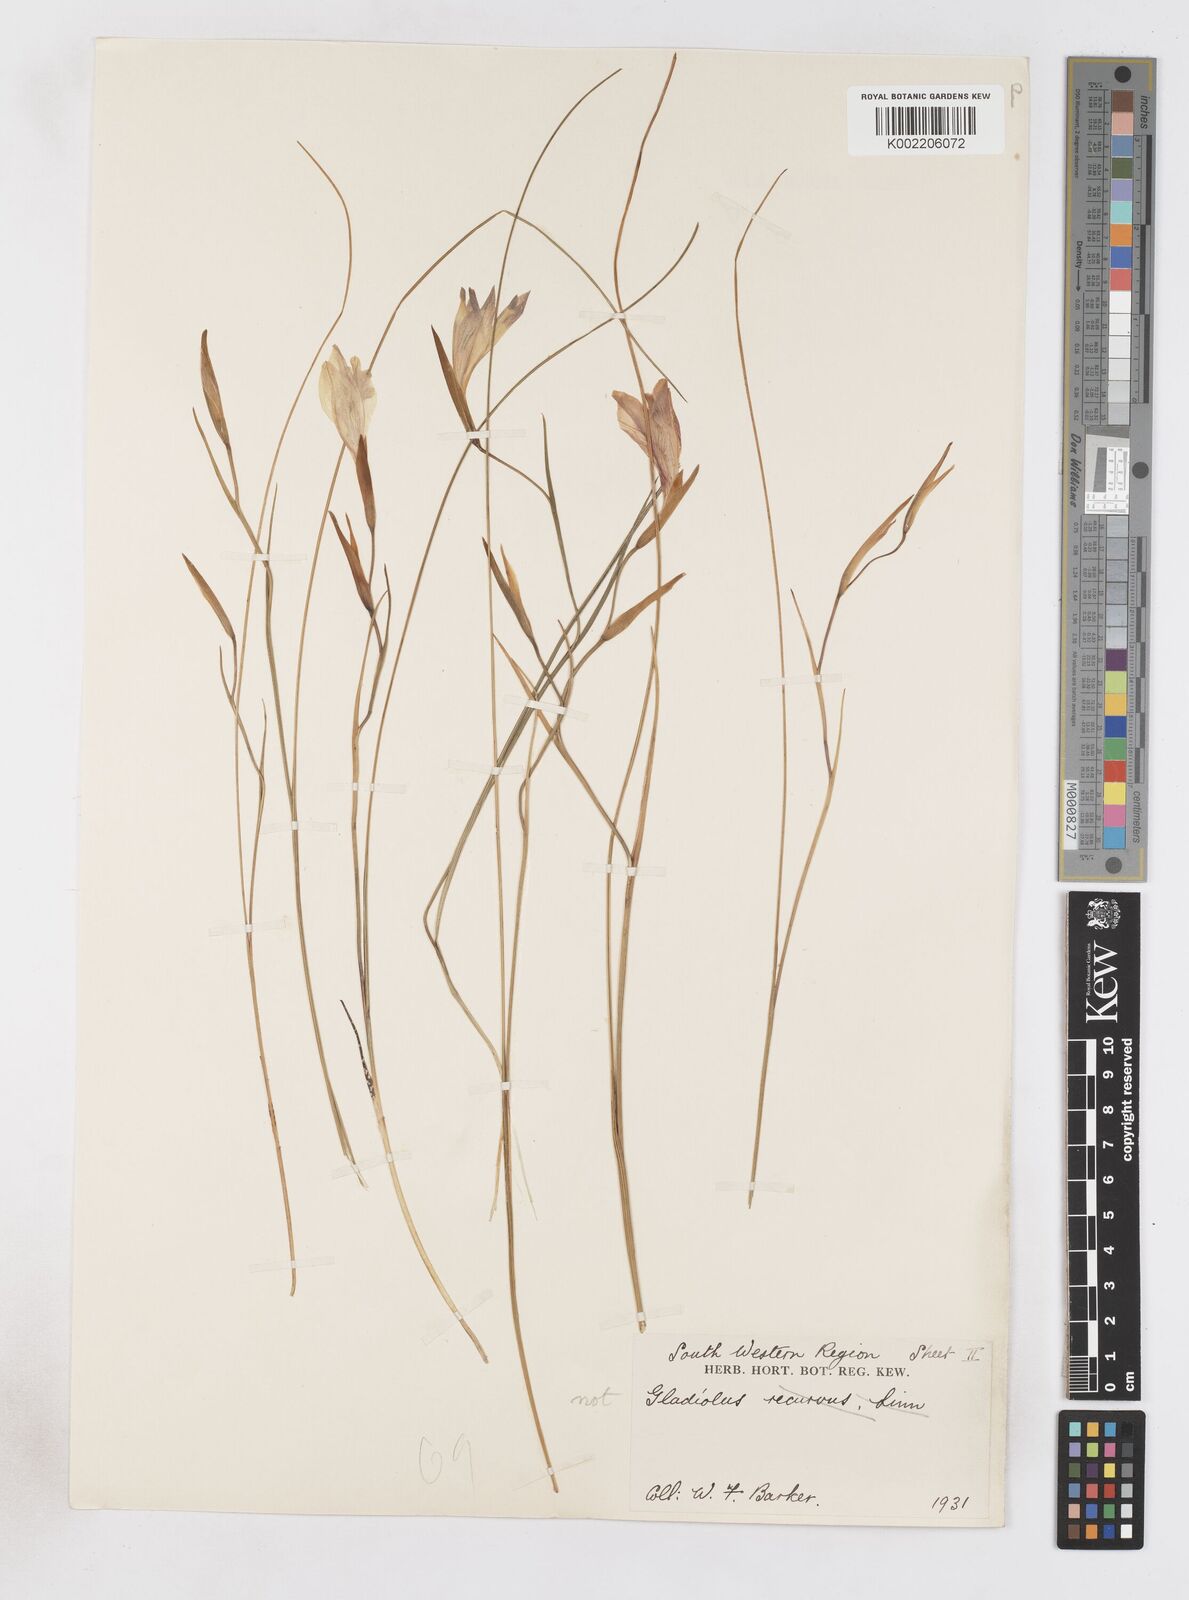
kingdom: Plantae
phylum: Tracheophyta
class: Liliopsida
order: Asparagales
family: Iridaceae
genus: Gladiolus
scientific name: Gladiolus carinatus
